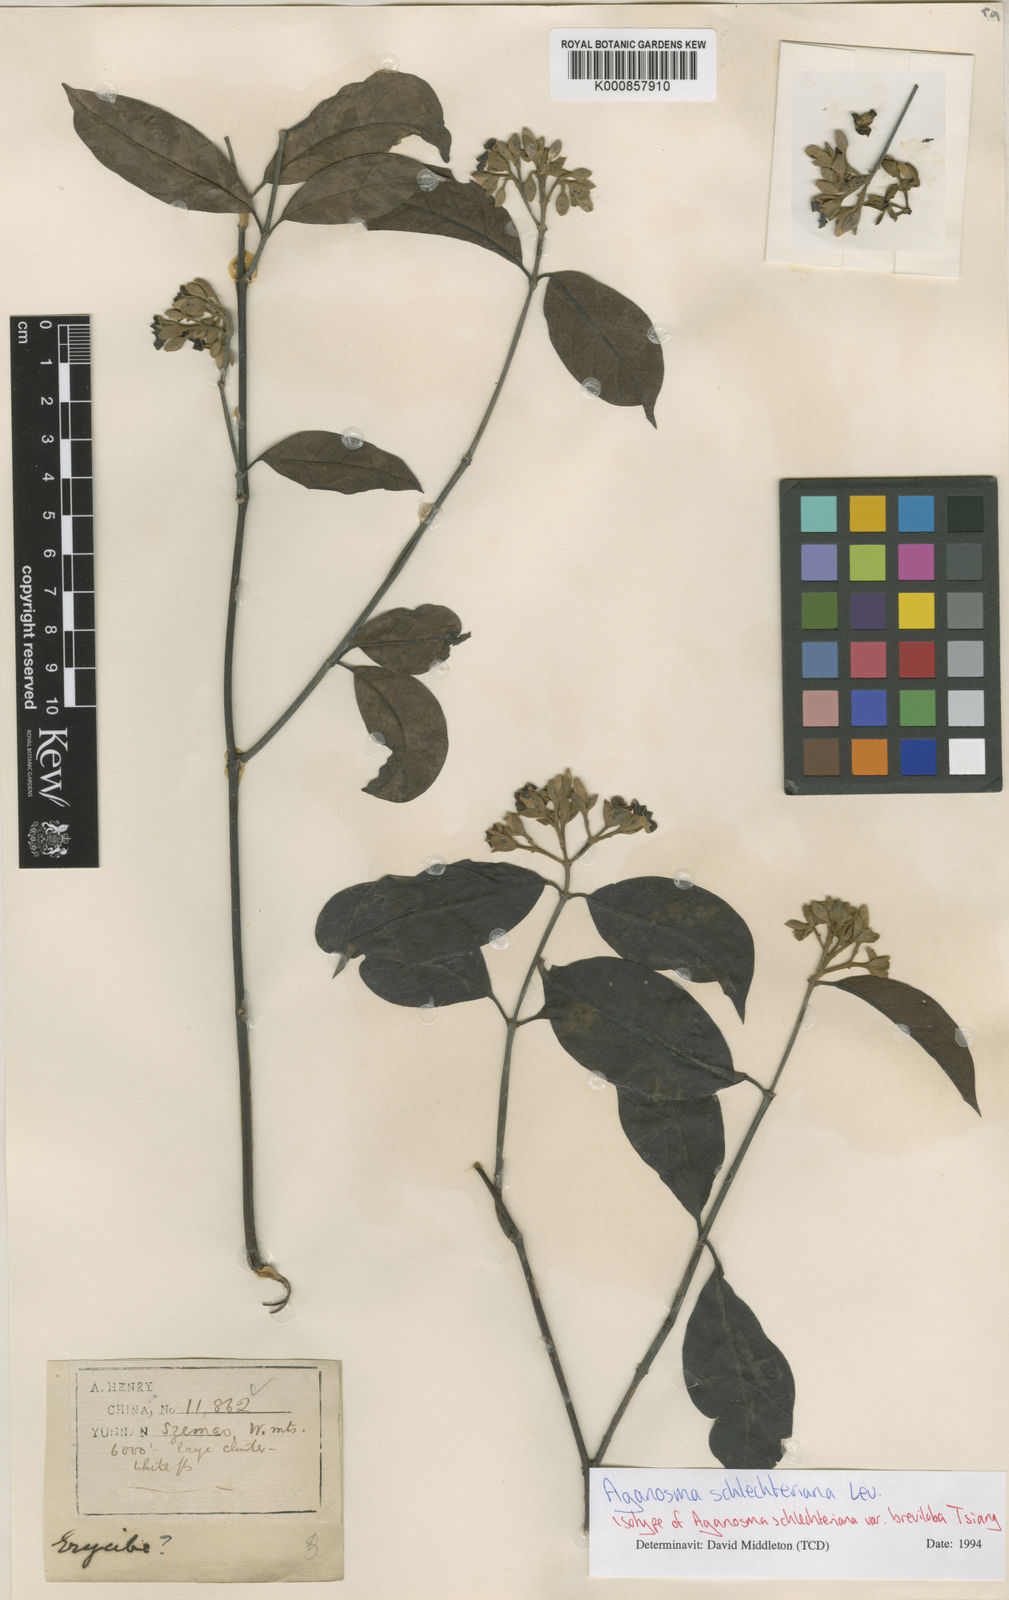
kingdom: Plantae
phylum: Tracheophyta
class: Magnoliopsida
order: Gentianales
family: Apocynaceae
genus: Aganosma
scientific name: Aganosma
